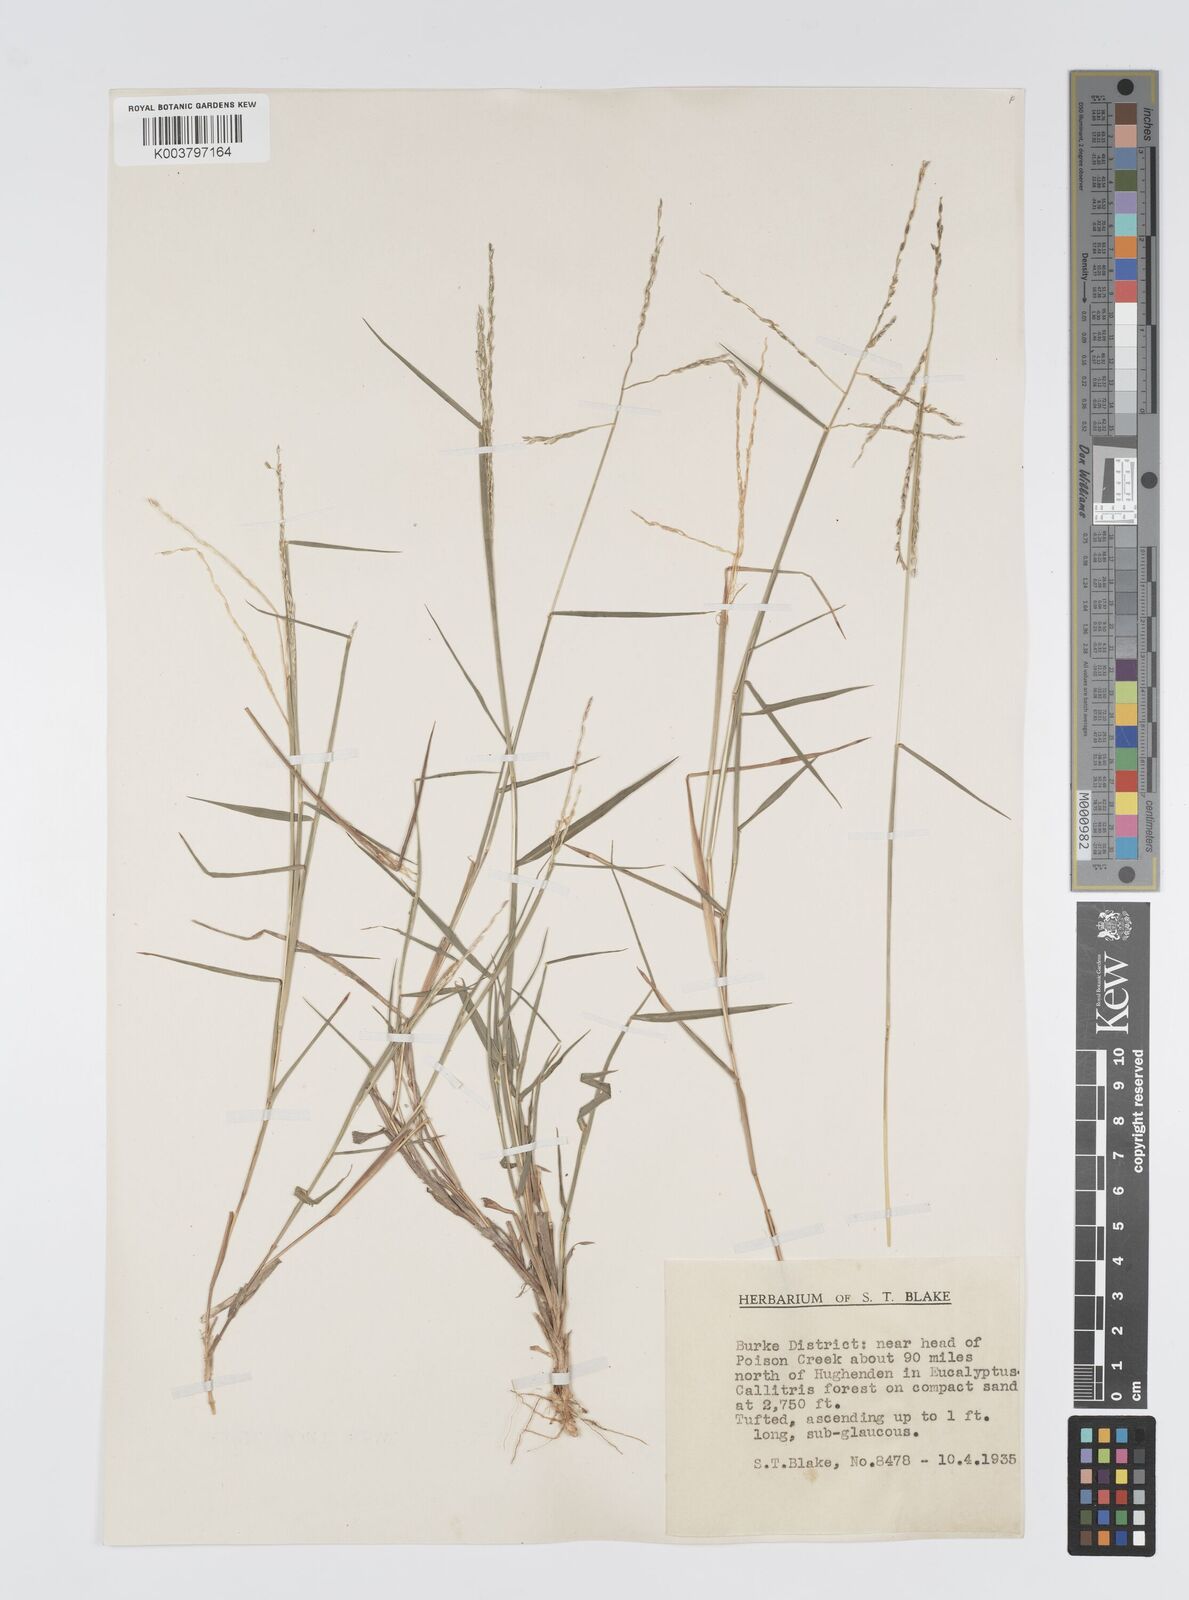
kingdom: Plantae
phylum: Tracheophyta
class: Liliopsida
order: Poales
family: Poaceae
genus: Digitaria
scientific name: Digitaria spec
